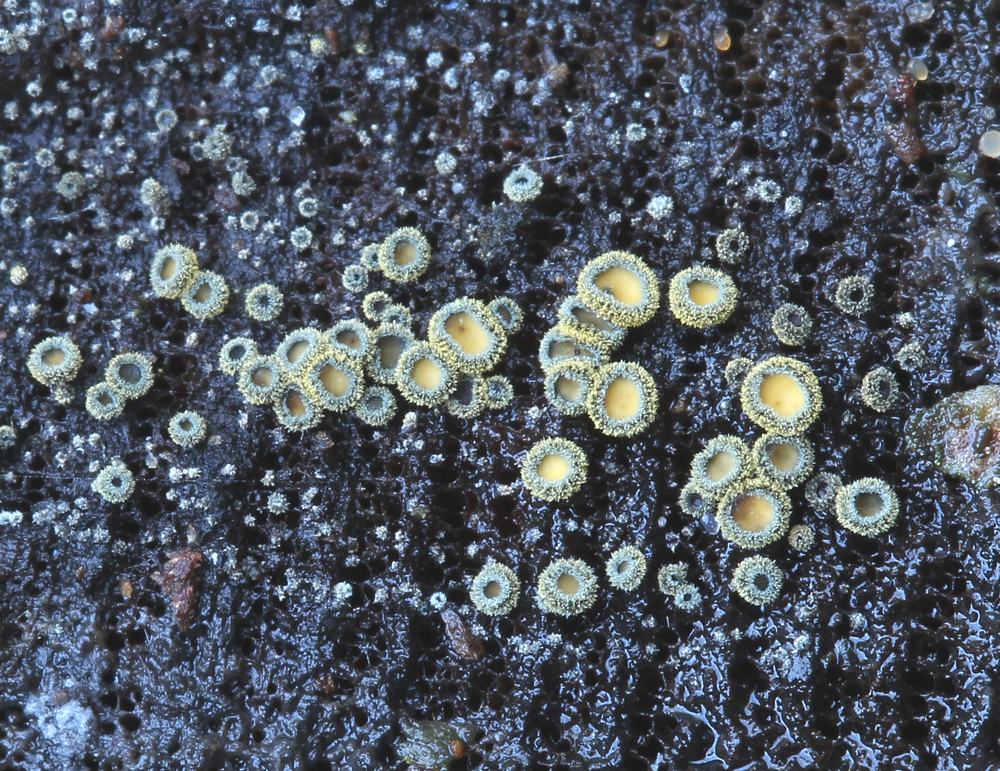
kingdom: Fungi
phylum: Ascomycota
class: Leotiomycetes
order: Helotiales
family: Lachnaceae
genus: Neodasyscypha
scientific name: Neodasyscypha cerina
